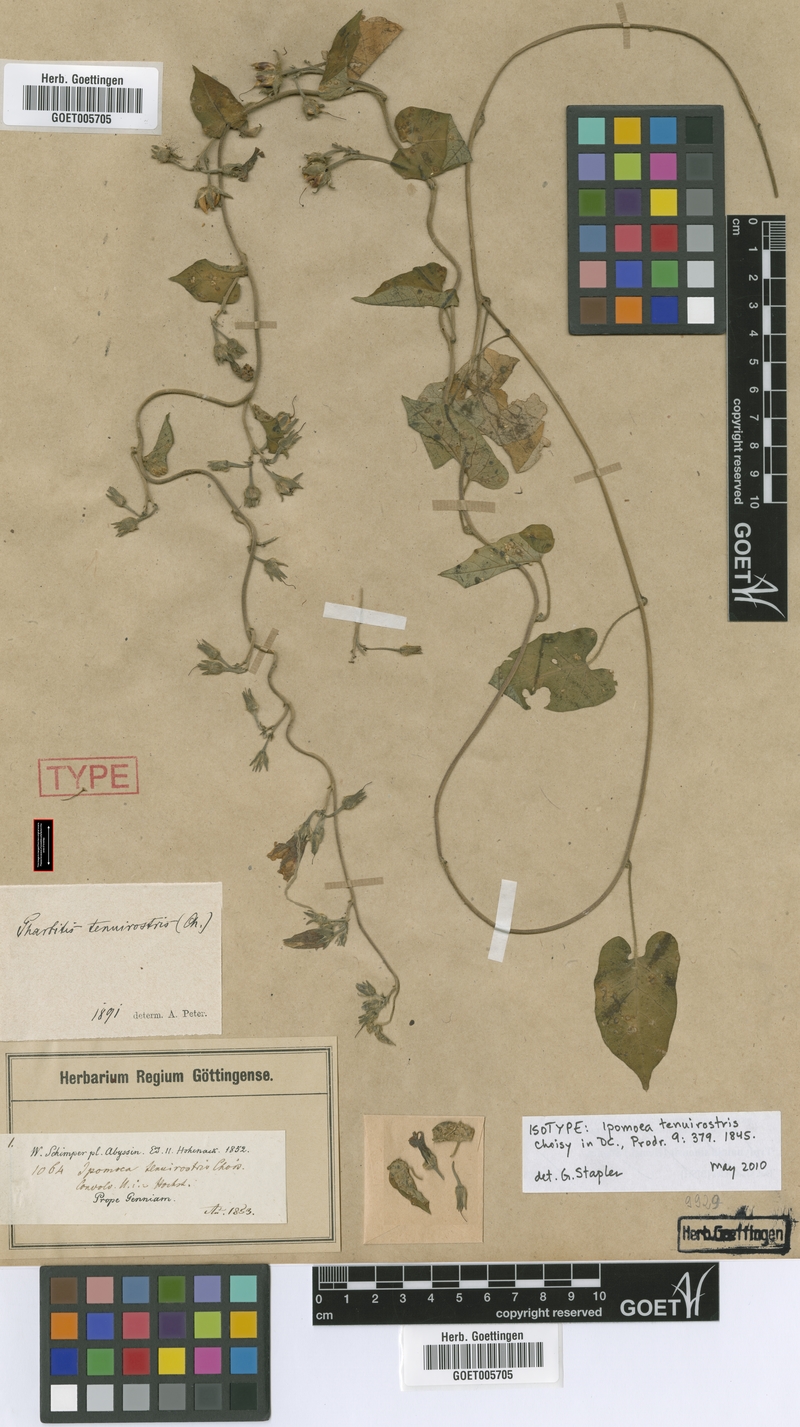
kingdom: Plantae
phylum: Tracheophyta
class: Magnoliopsida
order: Solanales
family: Convolvulaceae
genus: Ipomoea
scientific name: Ipomoea tenuirostris
